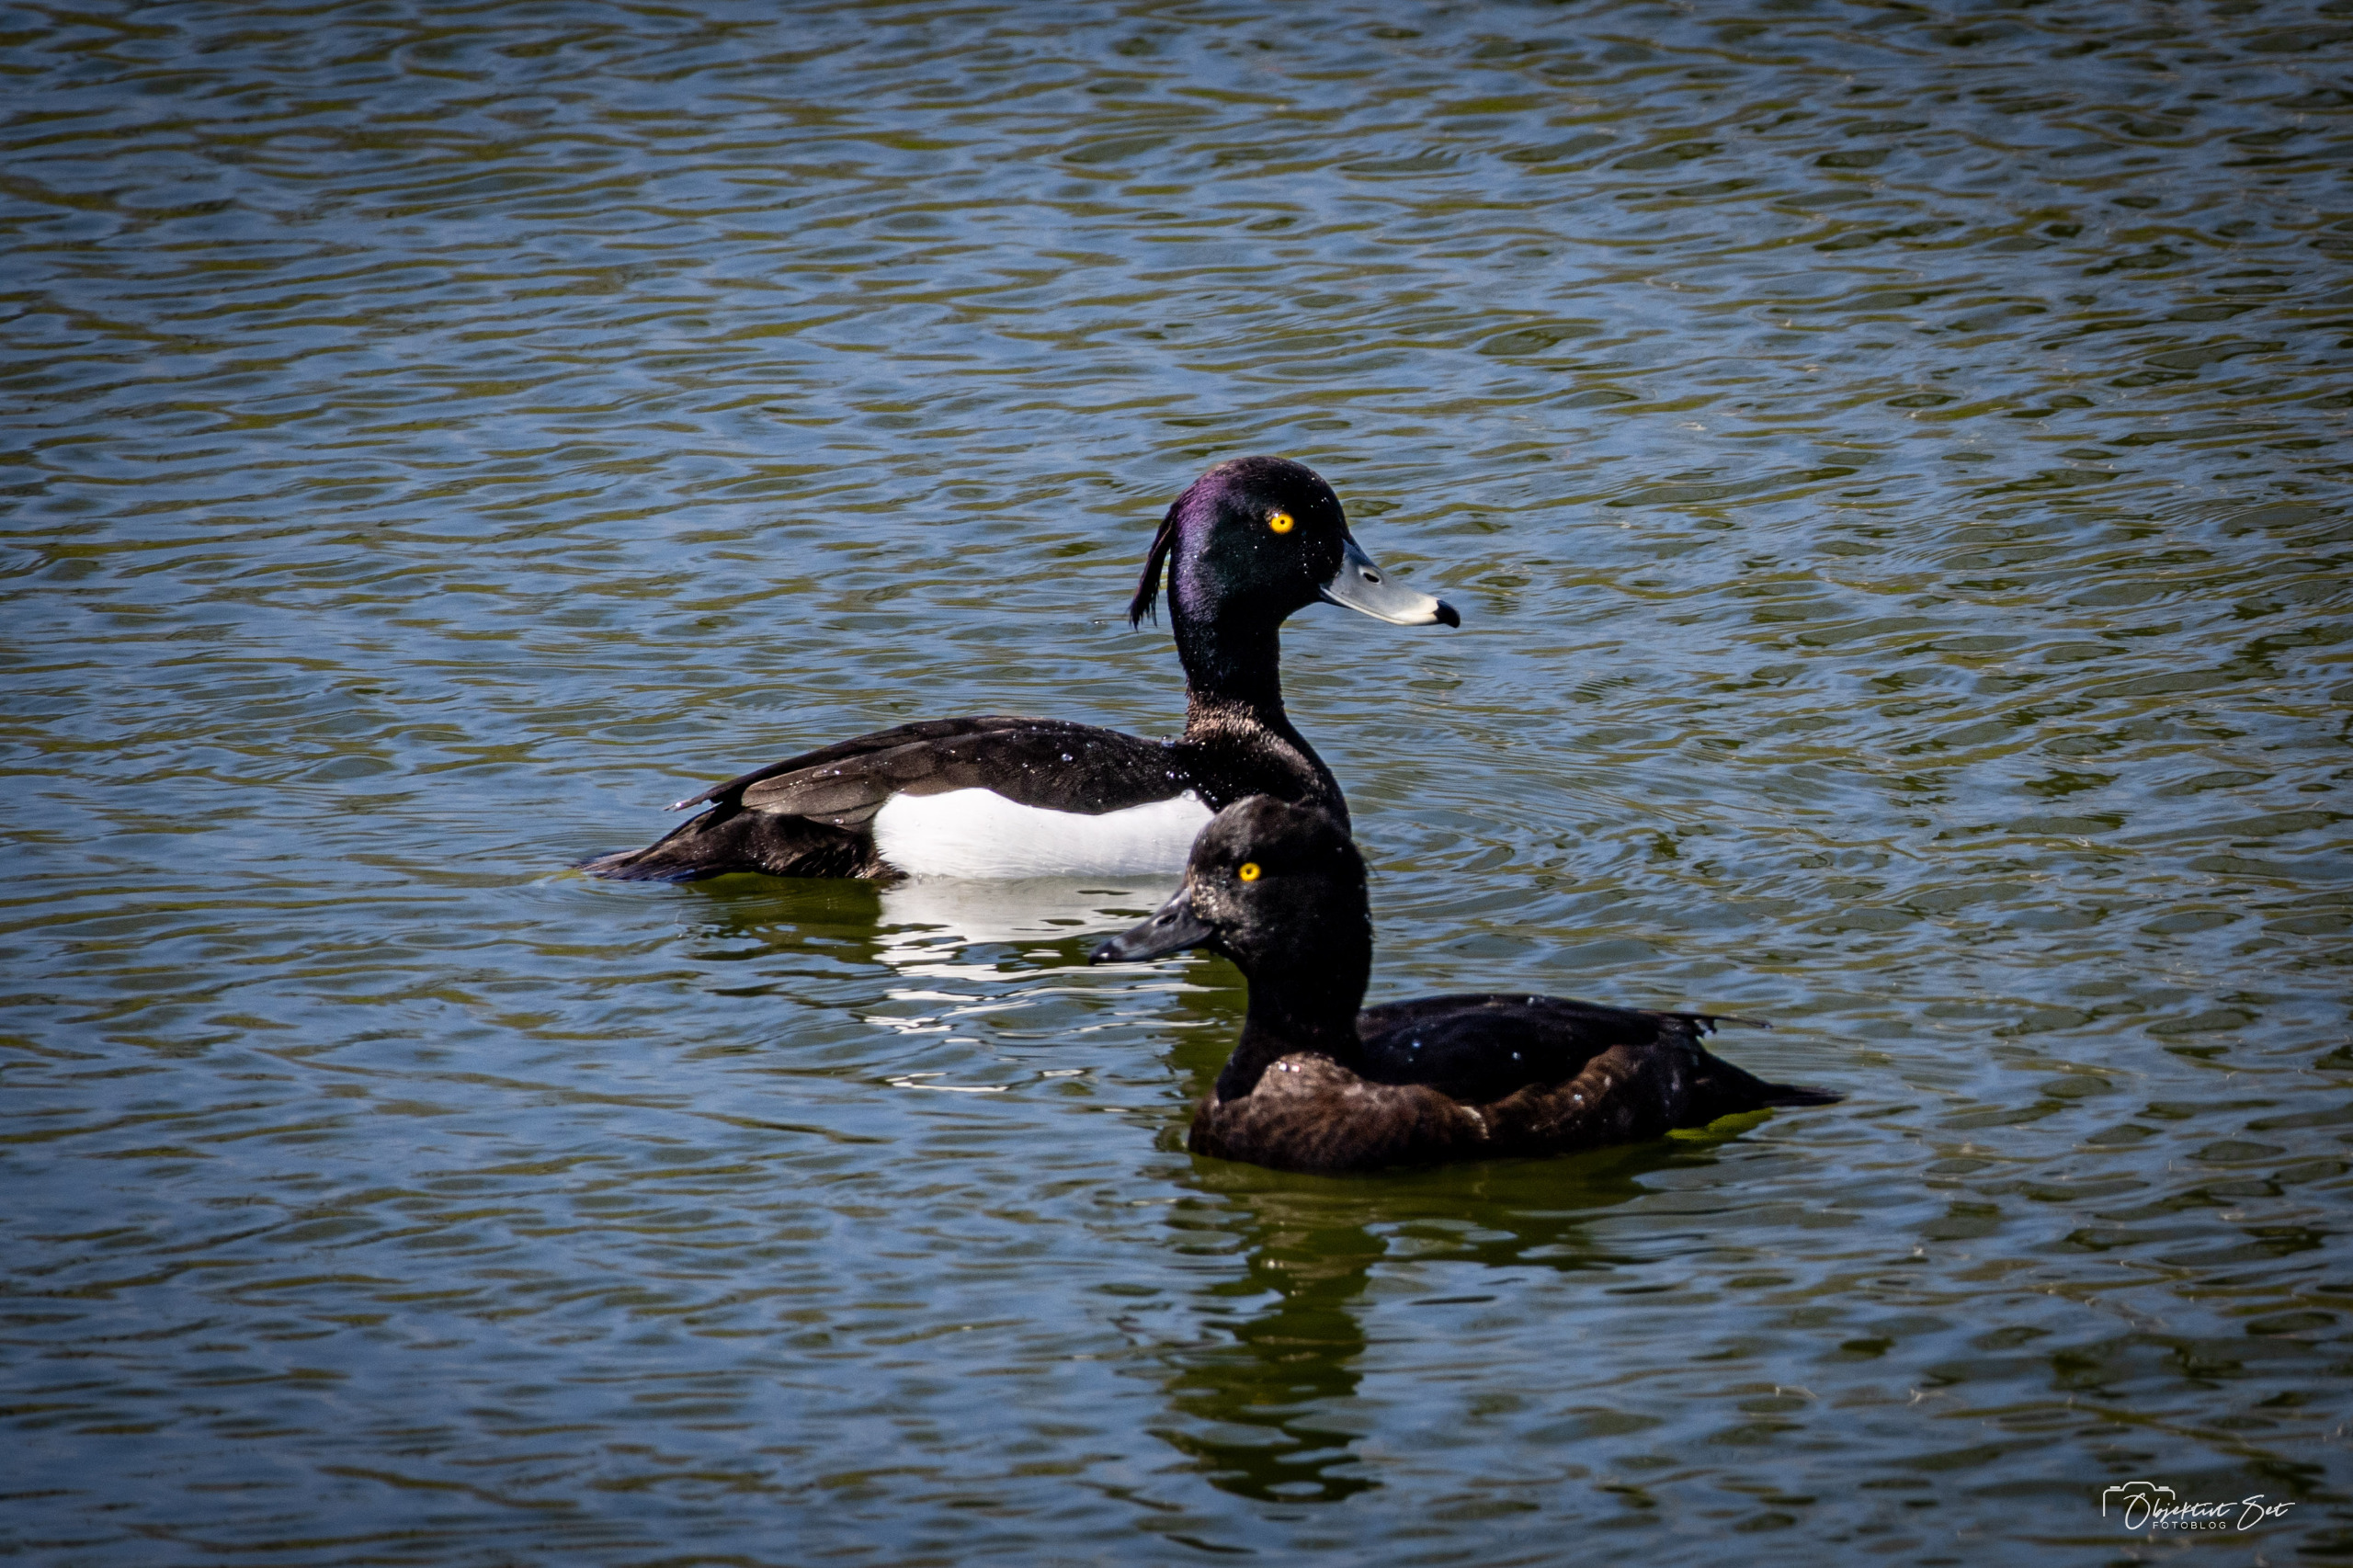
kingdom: Animalia
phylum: Chordata
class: Aves
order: Anseriformes
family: Anatidae
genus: Aythya
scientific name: Aythya fuligula
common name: Troldand
